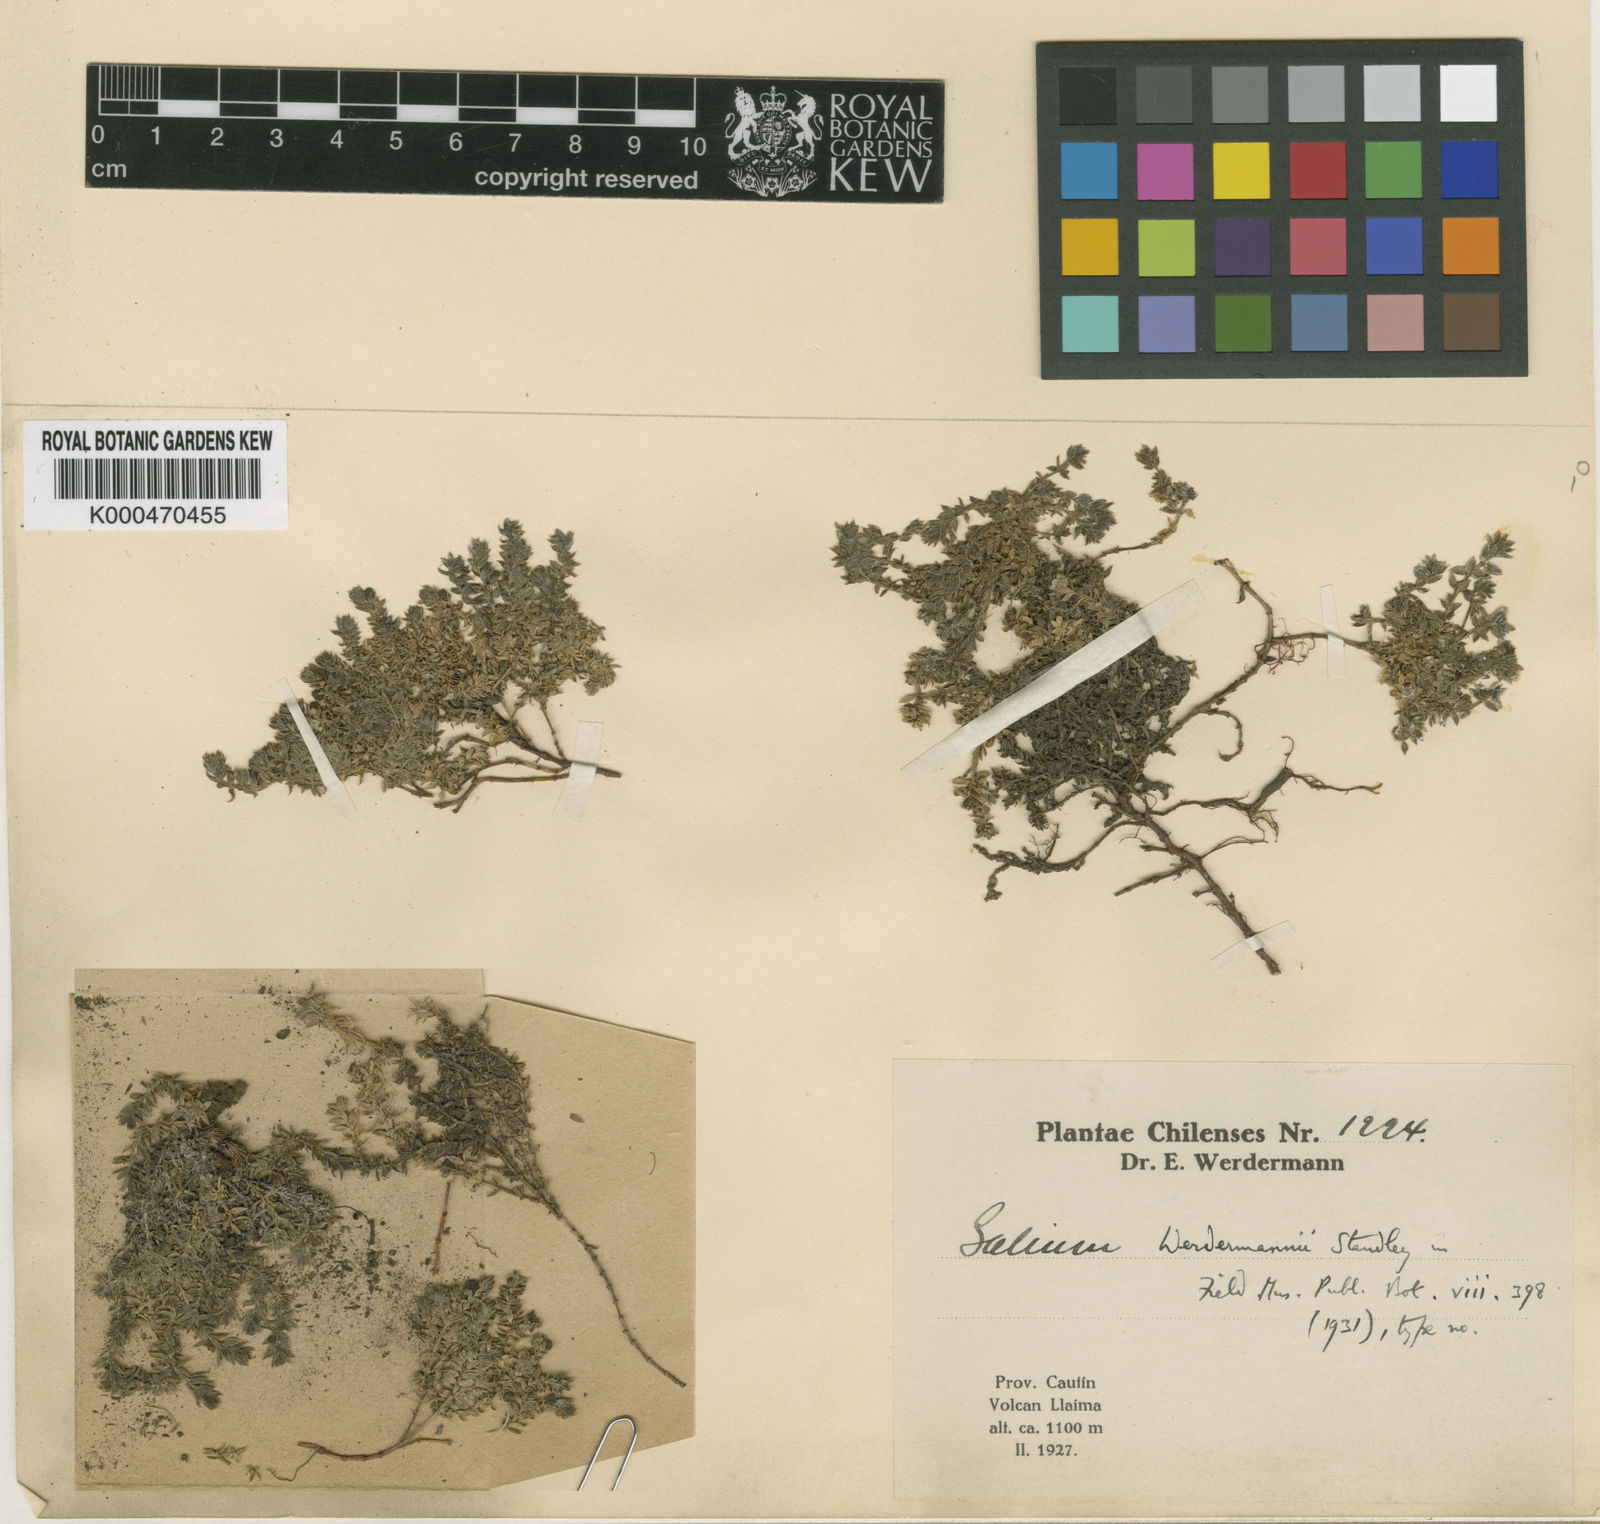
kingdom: Plantae
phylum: Tracheophyta
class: Magnoliopsida
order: Gentianales
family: Rubiaceae
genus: Galium
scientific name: Galium werdermannii
